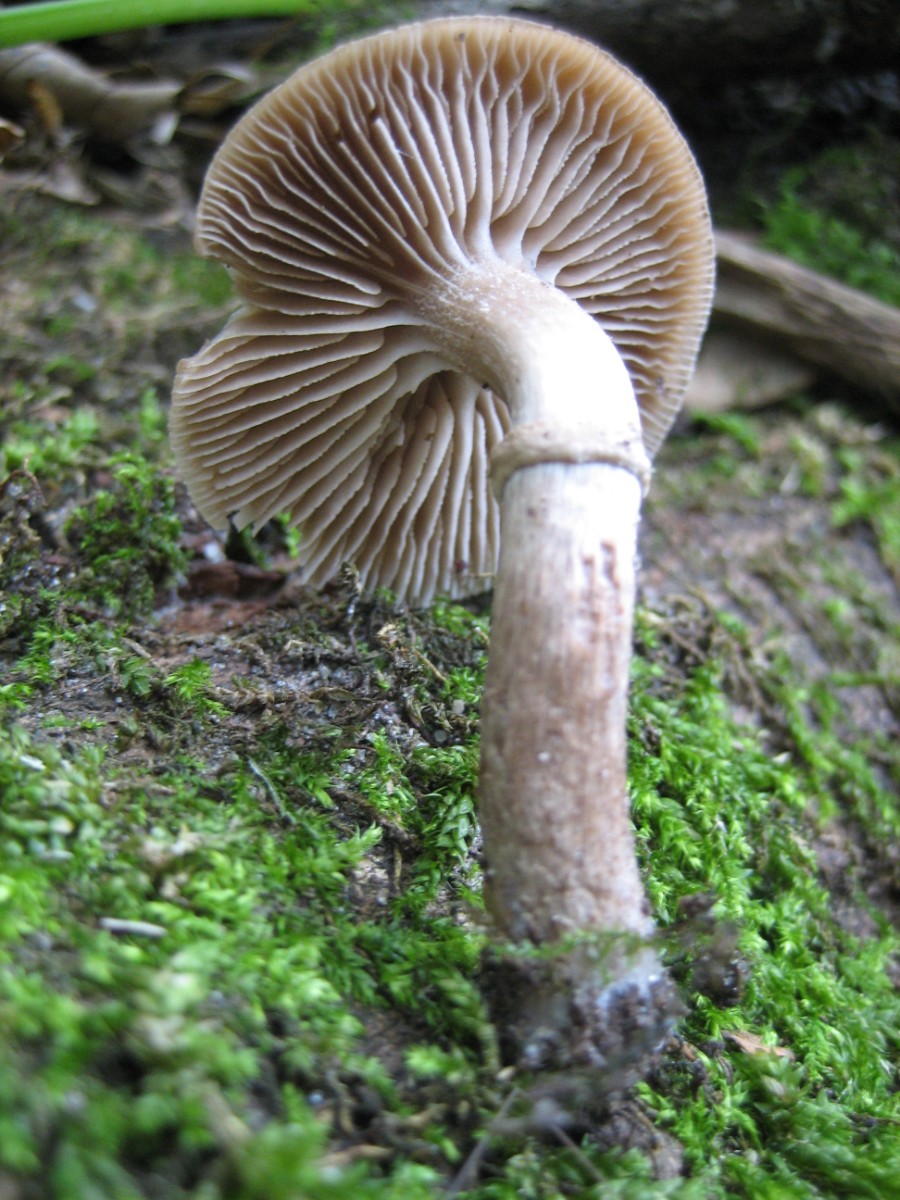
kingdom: Fungi
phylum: Basidiomycota
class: Agaricomycetes
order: Agaricales
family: Tubariaceae
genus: Cyclocybe
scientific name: Cyclocybe erebia
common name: mørk agerhat
